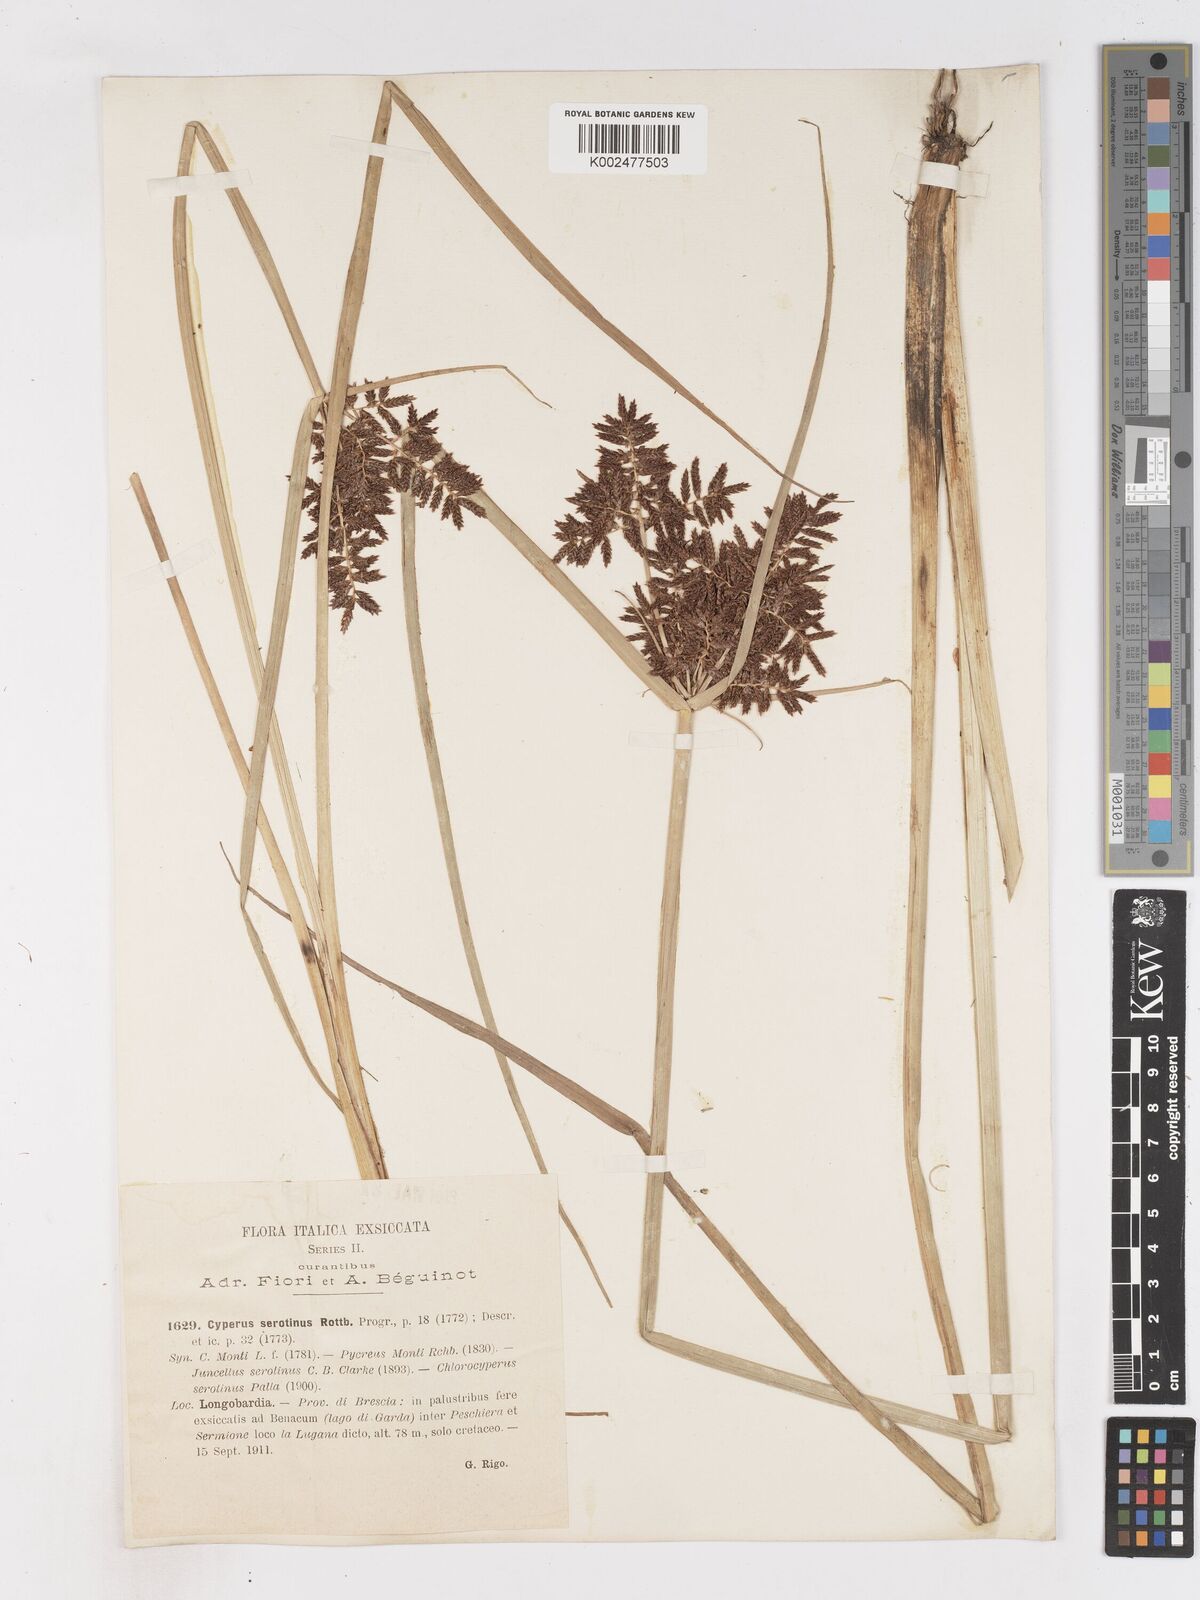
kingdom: Plantae
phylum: Tracheophyta
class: Liliopsida
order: Poales
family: Cyperaceae
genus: Cyperus
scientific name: Cyperus serotinus
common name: Tidalmarsh flatsedge
